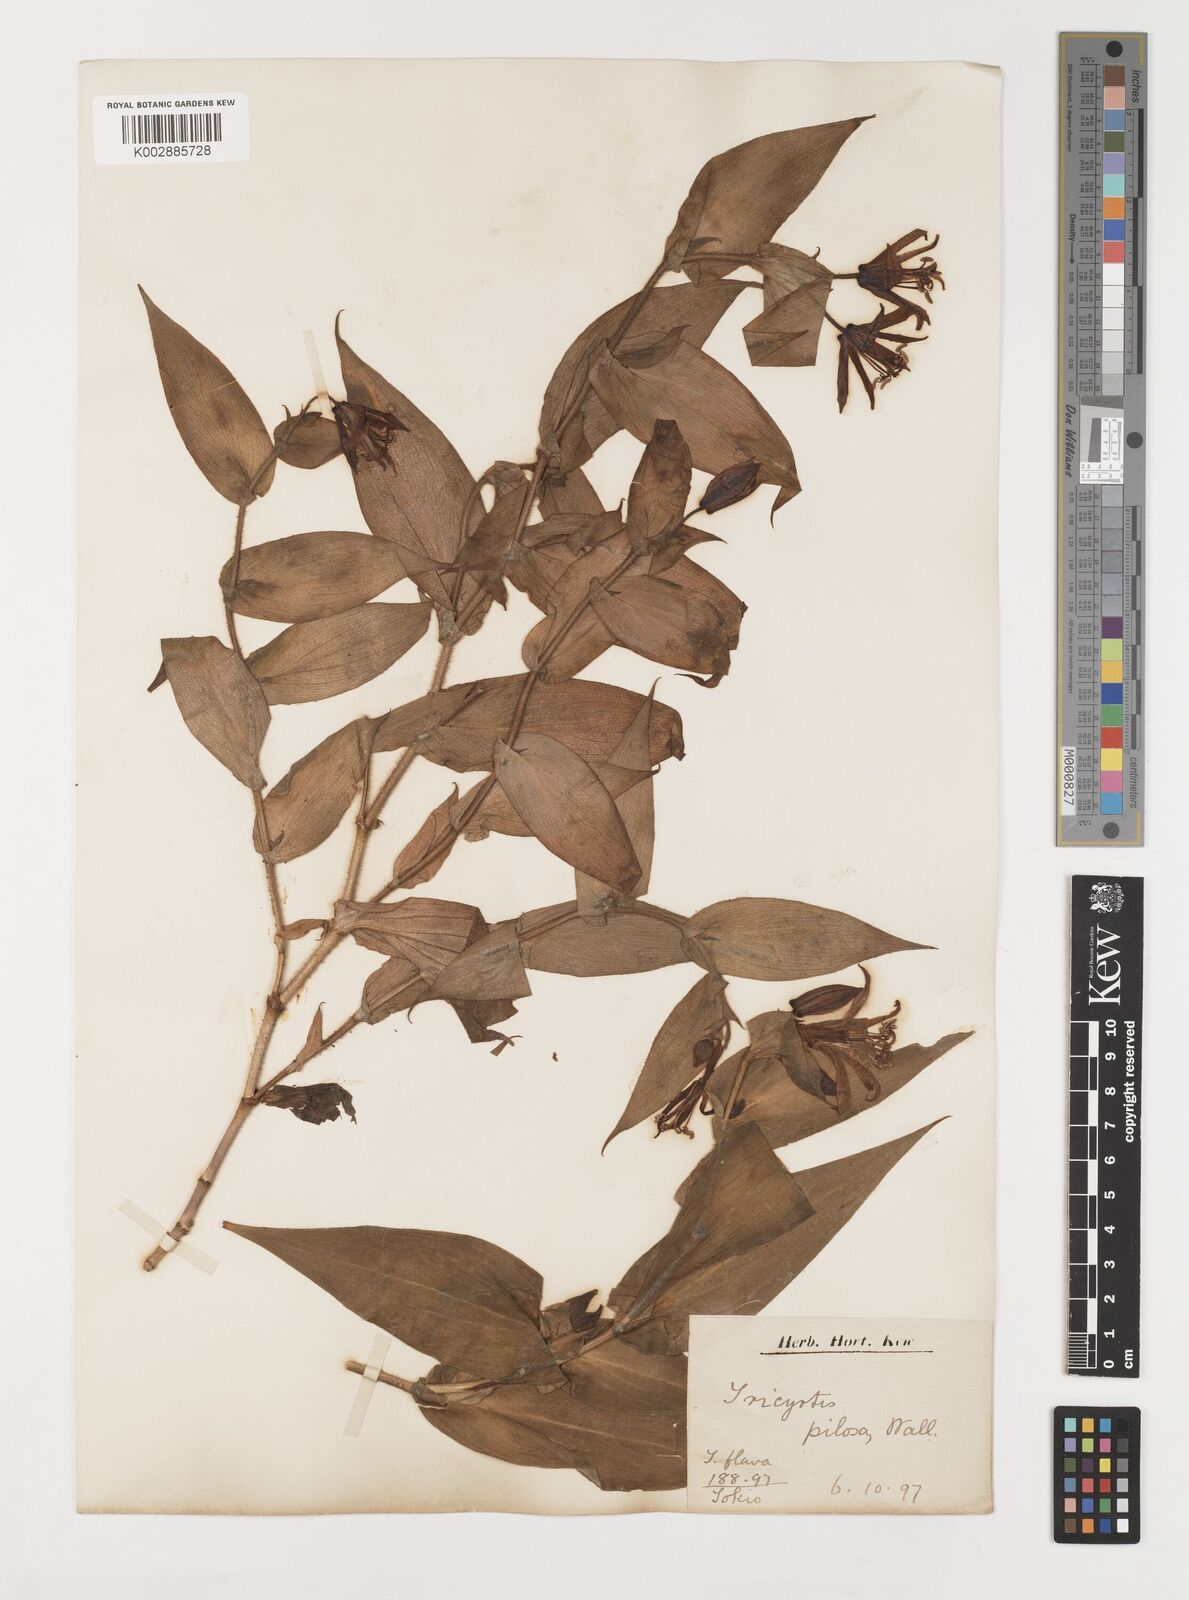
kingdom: Plantae
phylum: Tracheophyta
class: Liliopsida
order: Liliales
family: Liliaceae
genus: Tricyrtis
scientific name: Tricyrtis maculata
